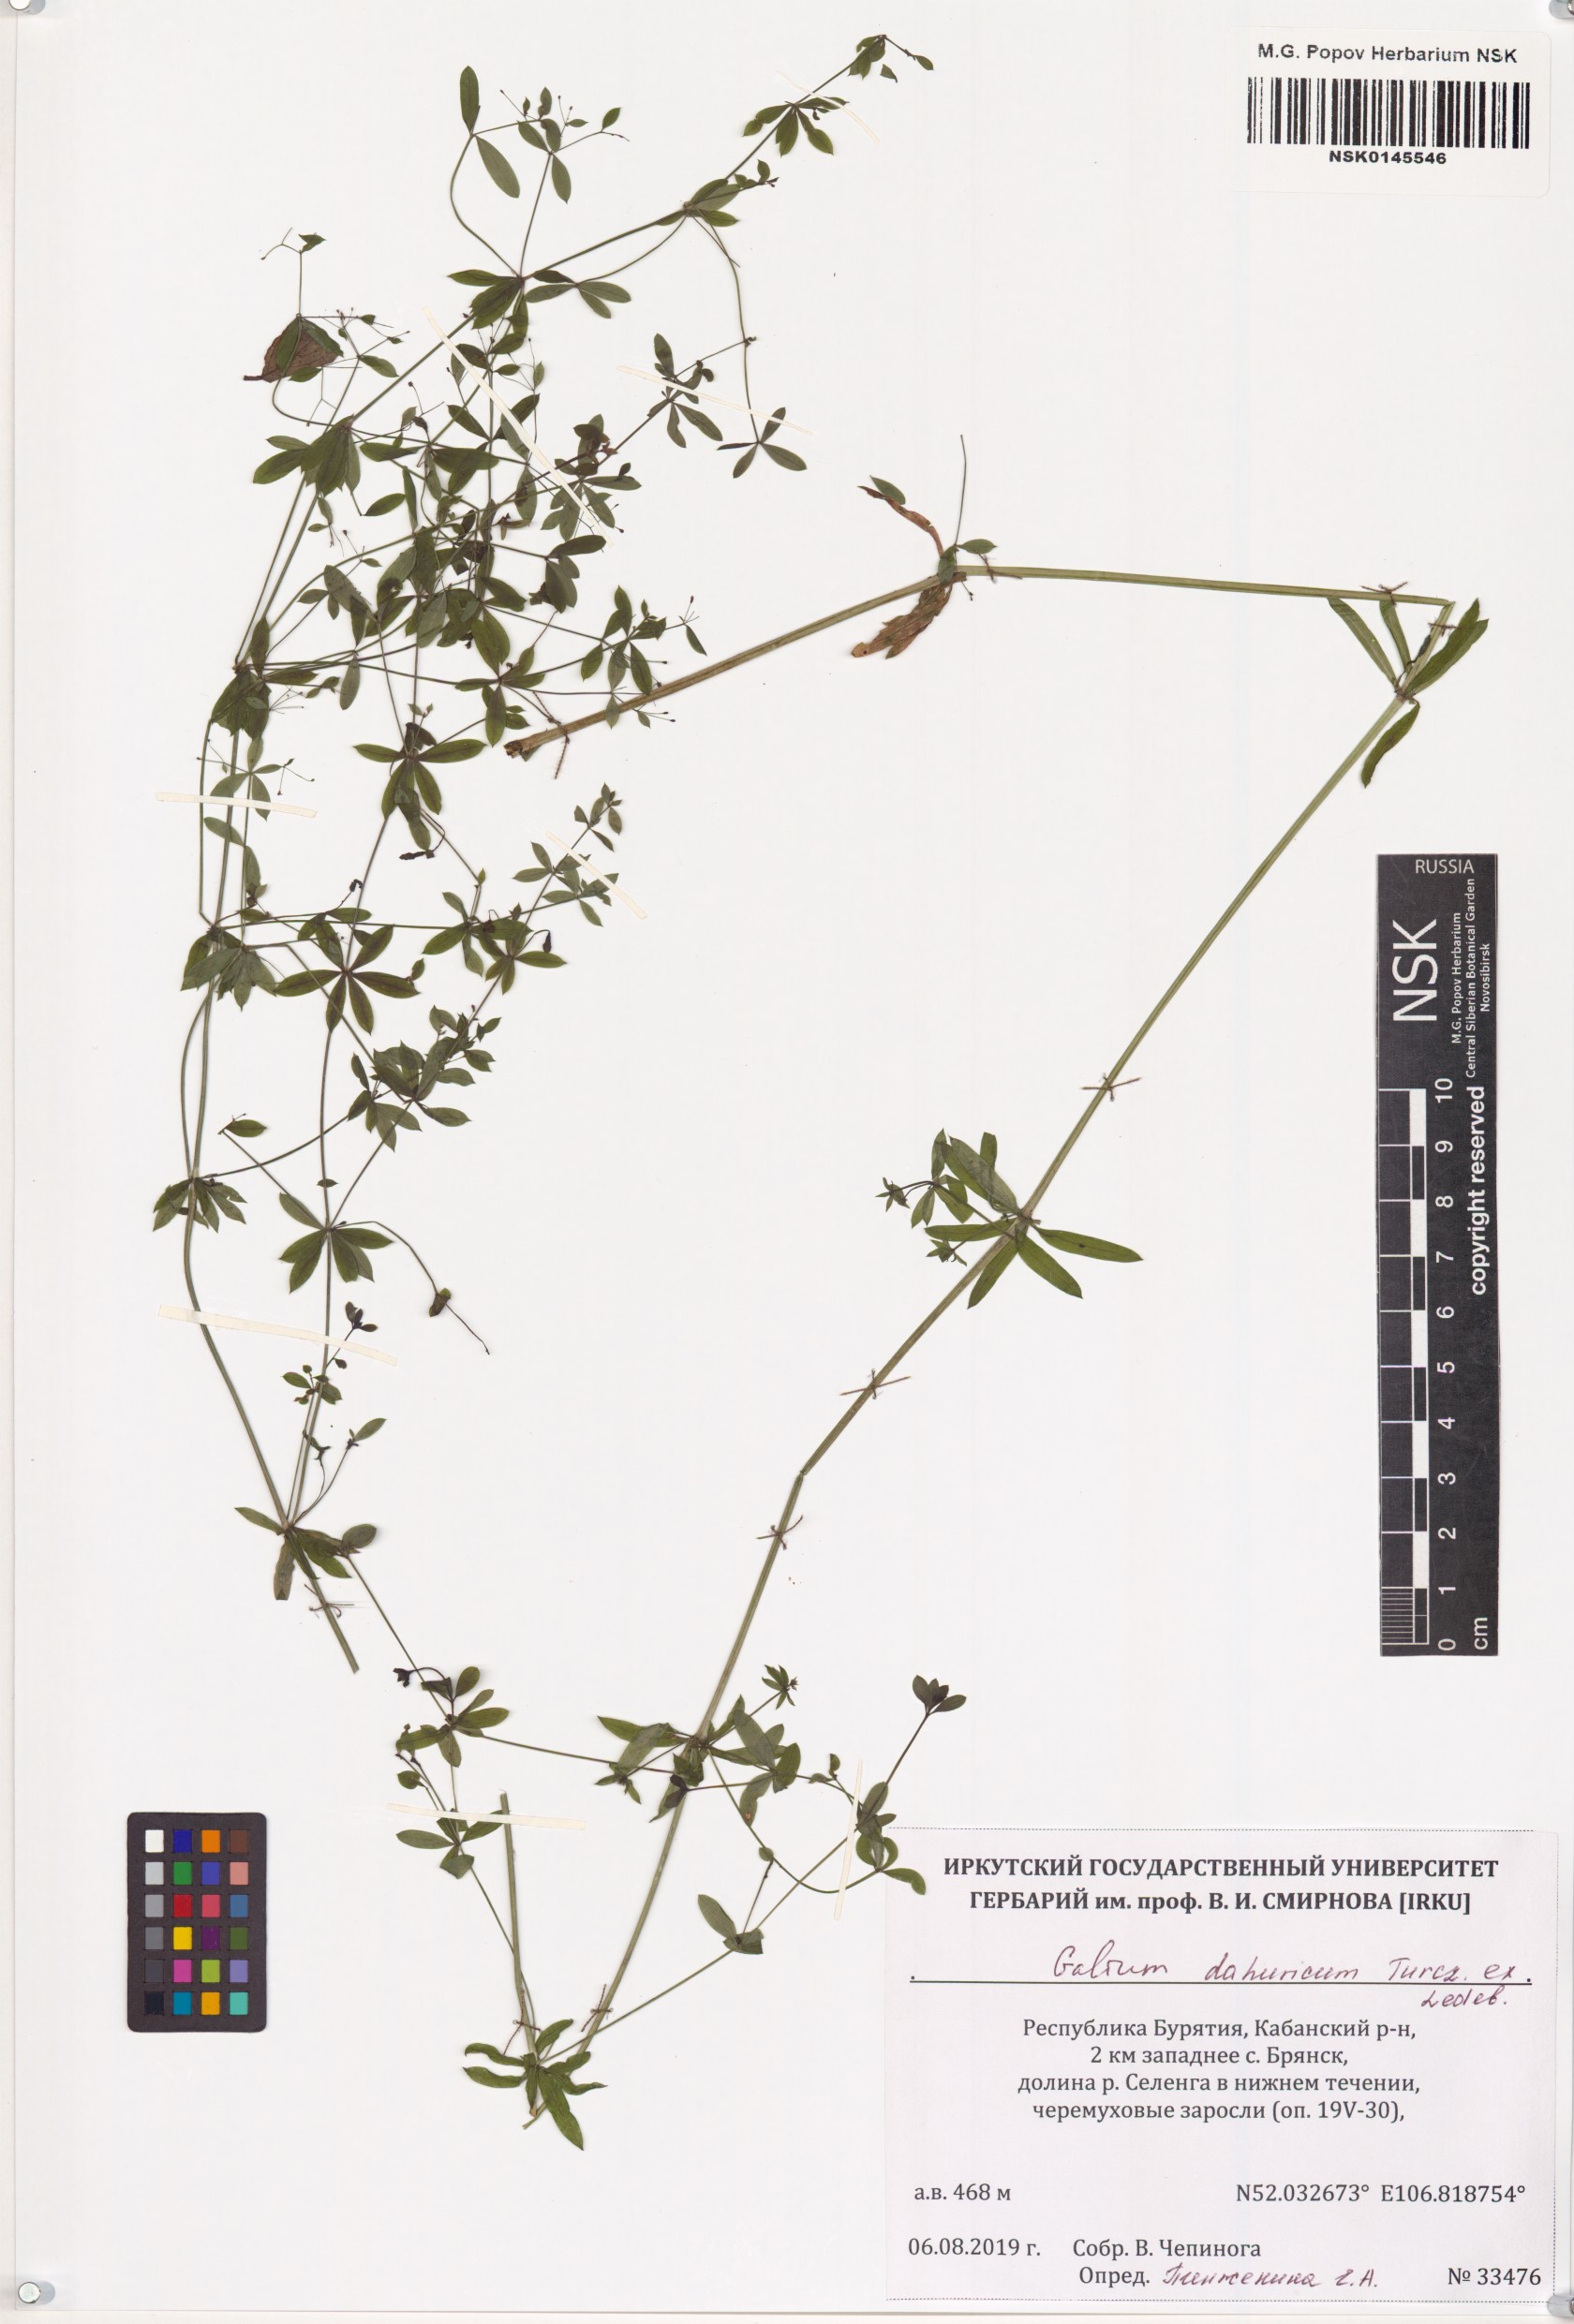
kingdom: Plantae
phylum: Tracheophyta
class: Magnoliopsida
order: Gentianales
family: Rubiaceae
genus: Galium
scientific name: Galium dahuricum
